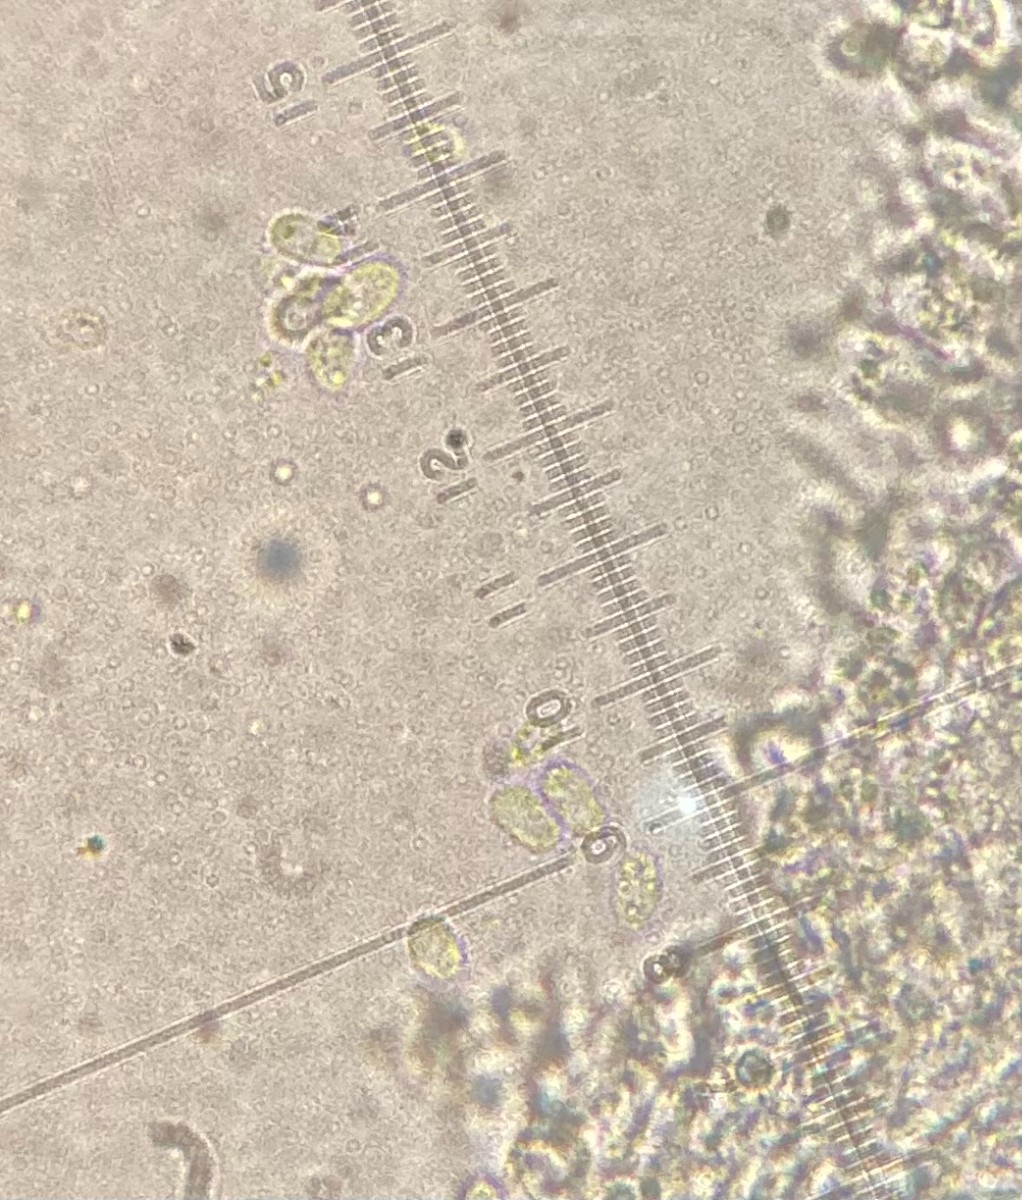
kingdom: Fungi
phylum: Basidiomycota
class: Agaricomycetes
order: Polyporales
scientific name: Polyporales
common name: poresvampordenen
